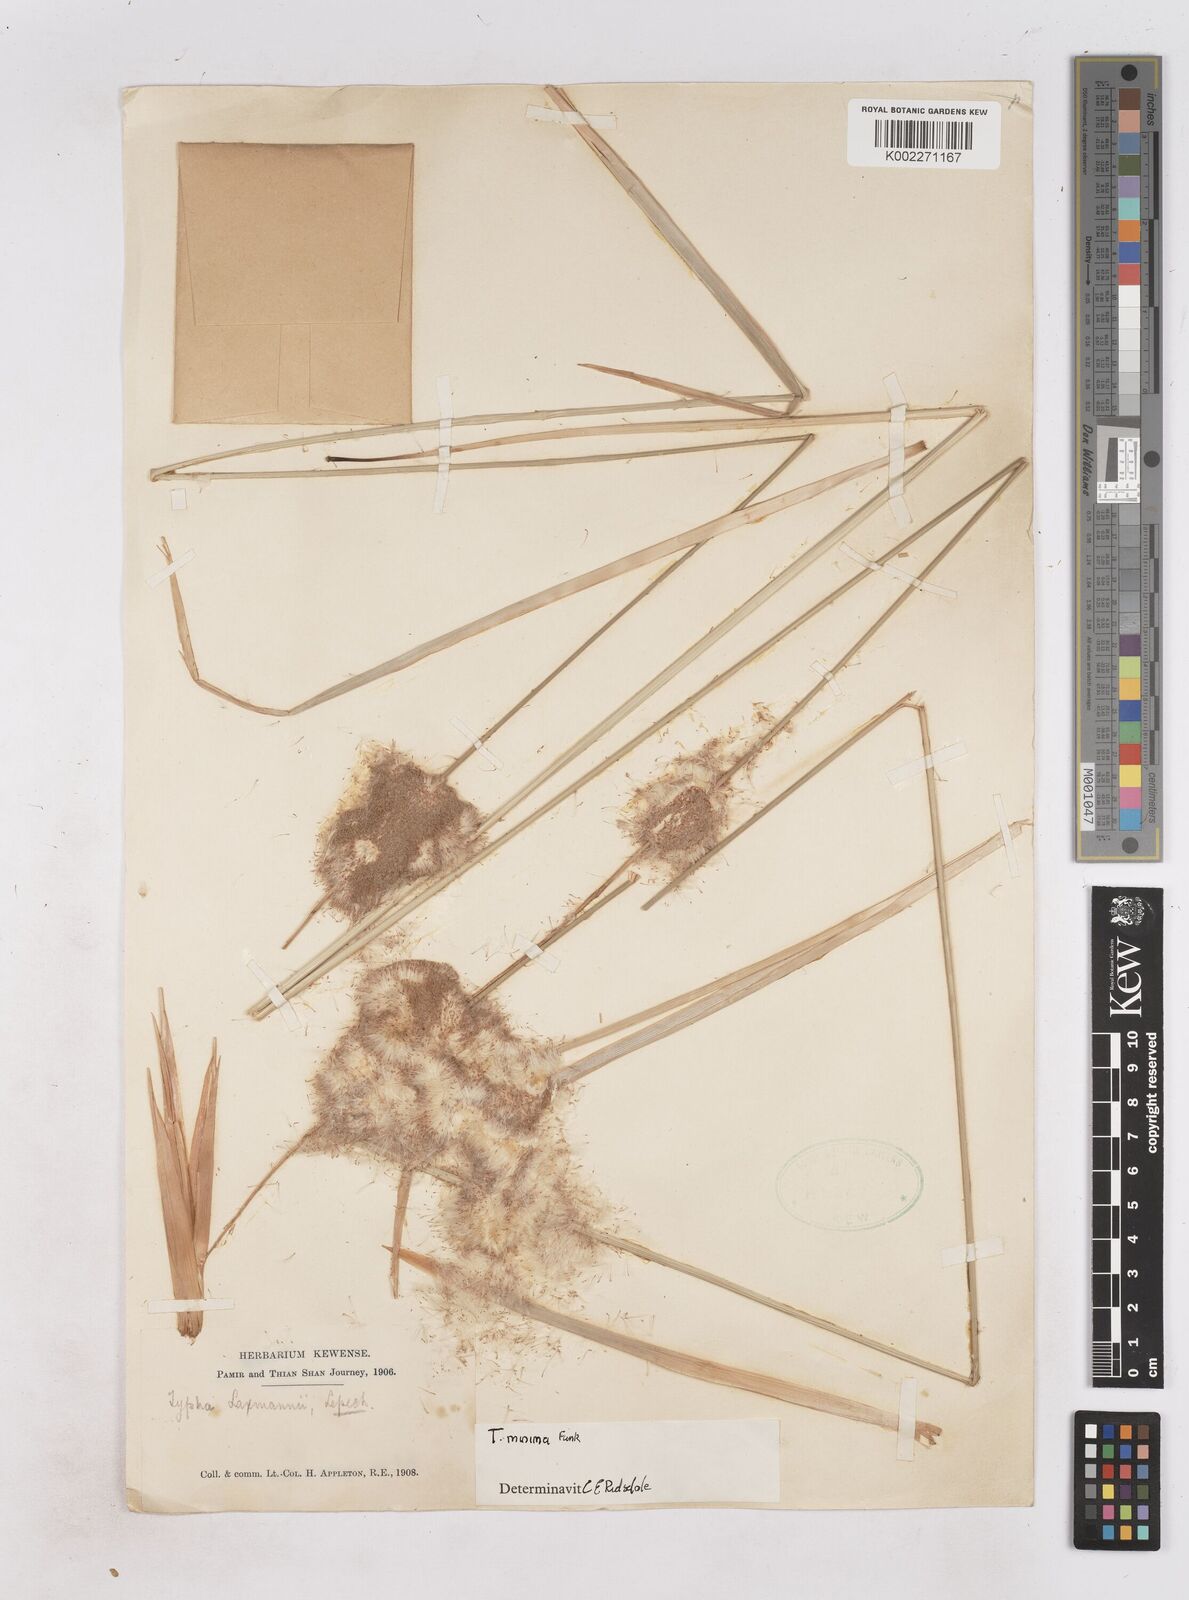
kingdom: Plantae
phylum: Tracheophyta
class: Liliopsida
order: Poales
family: Typhaceae
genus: Typha
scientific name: Typha
